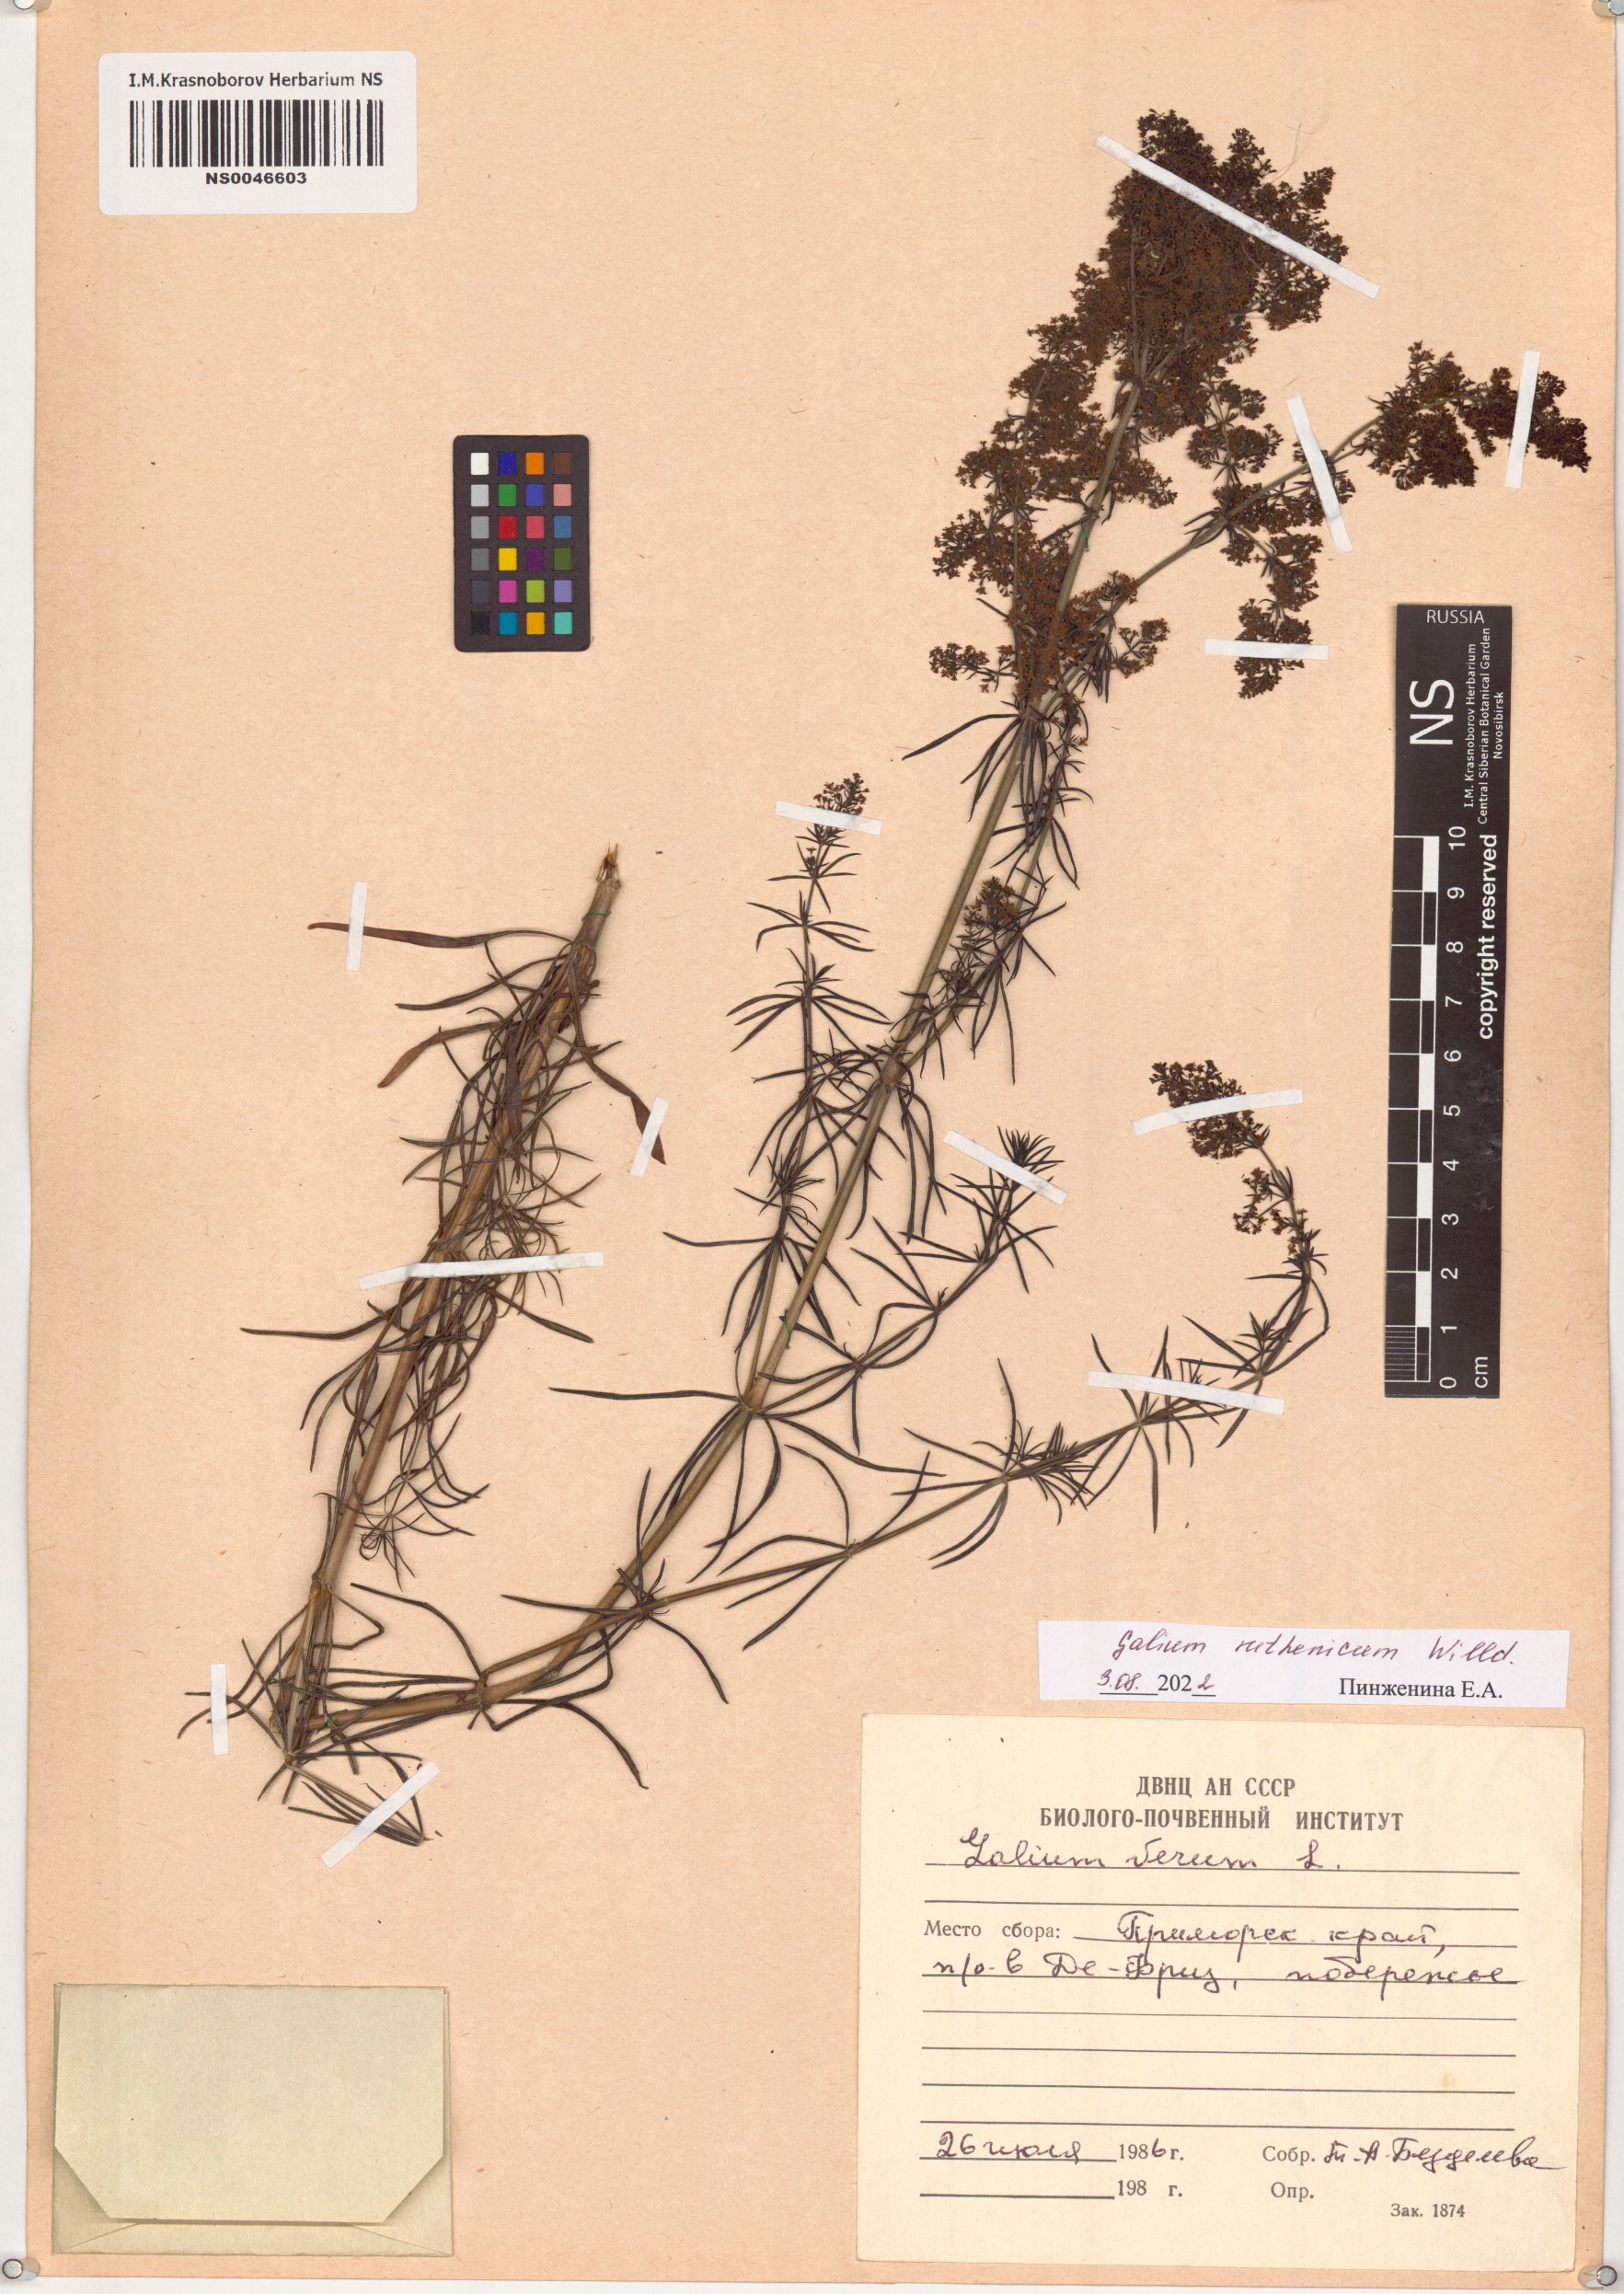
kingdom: Plantae
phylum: Tracheophyta
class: Magnoliopsida
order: Gentianales
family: Rubiaceae
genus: Galium
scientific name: Galium verum
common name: Lady's bedstraw
